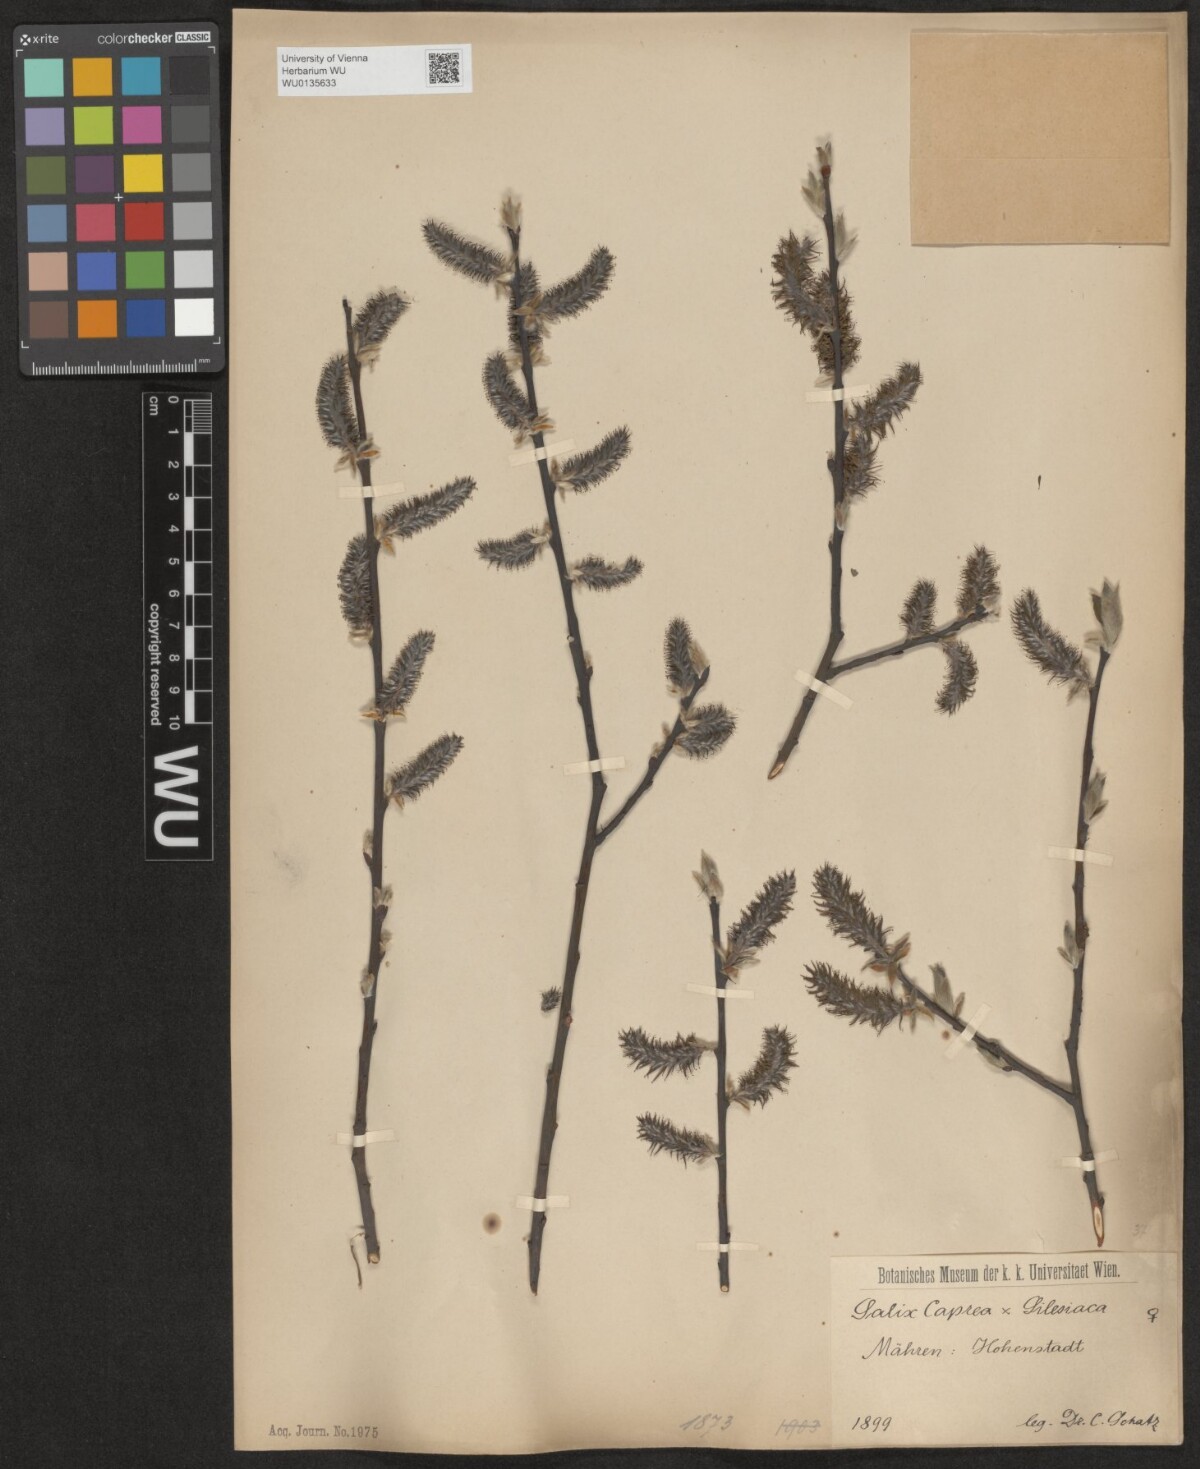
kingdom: Plantae
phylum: Tracheophyta
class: Magnoliopsida
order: Malpighiales
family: Salicaceae
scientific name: Salicaceae
